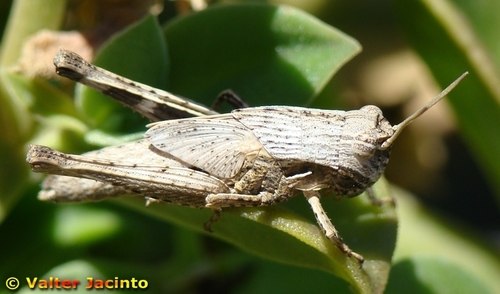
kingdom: Animalia
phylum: Arthropoda
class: Insecta
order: Orthoptera
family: Acrididae
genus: Morphacris
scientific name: Morphacris fasciata
